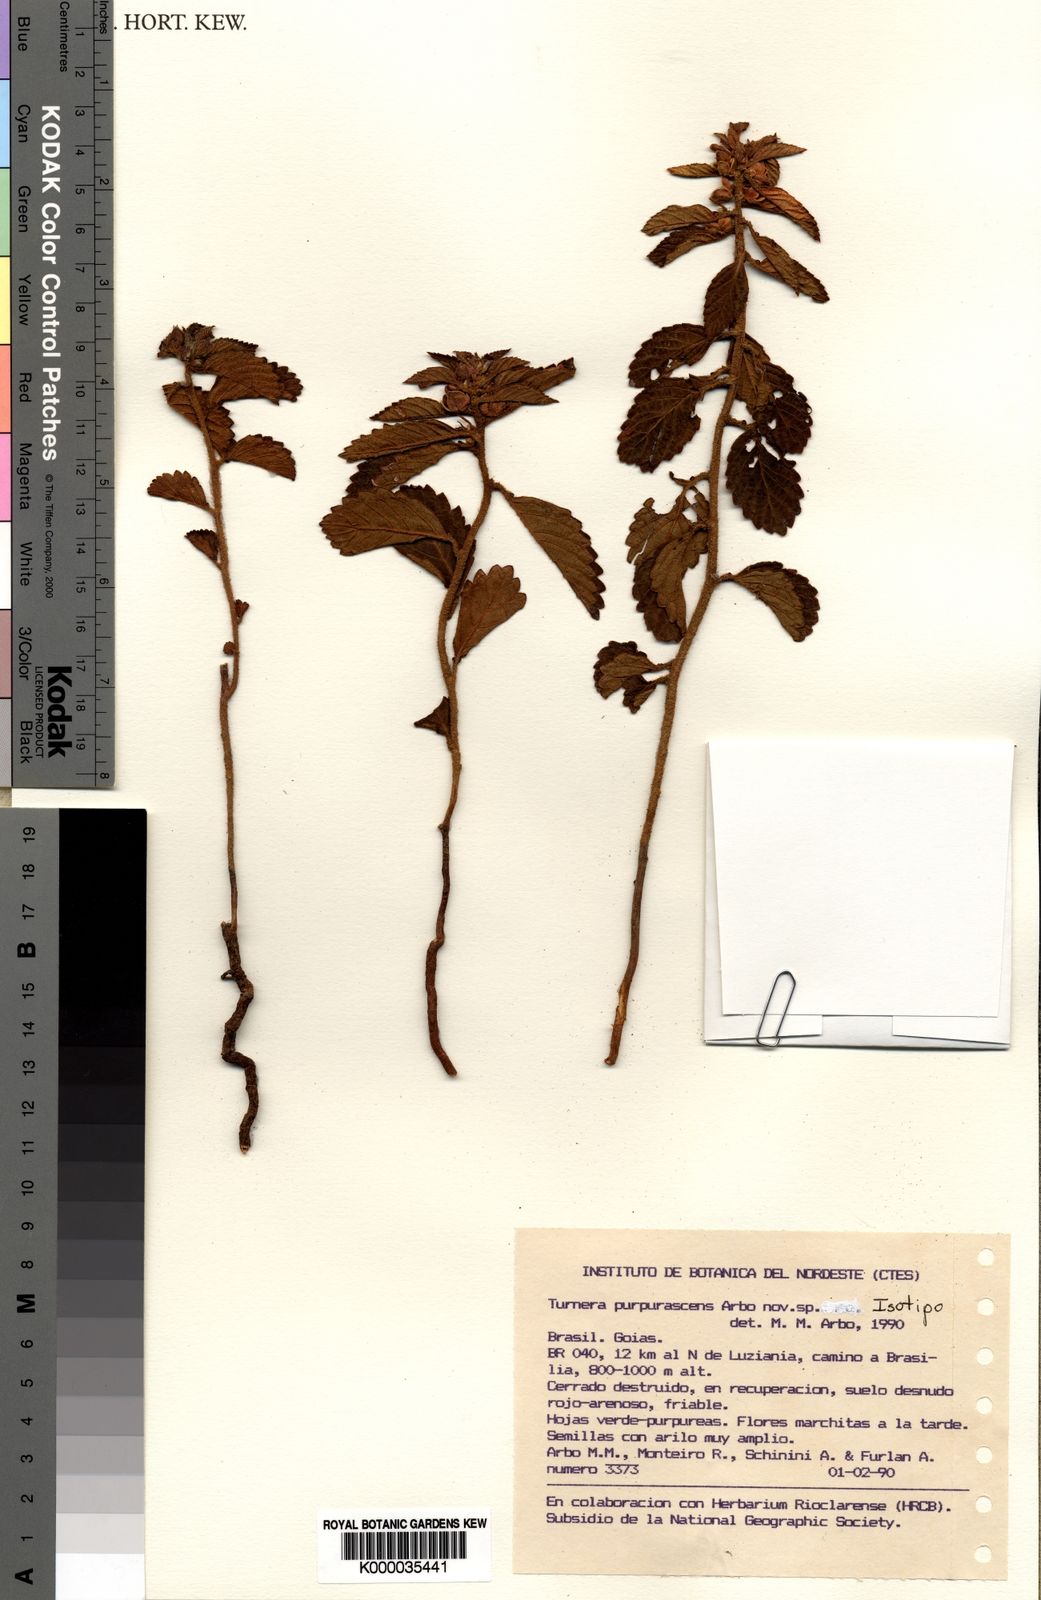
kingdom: Plantae
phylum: Tracheophyta
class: Magnoliopsida
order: Malpighiales
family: Turneraceae
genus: Turnera
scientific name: Turnera purpurascens
